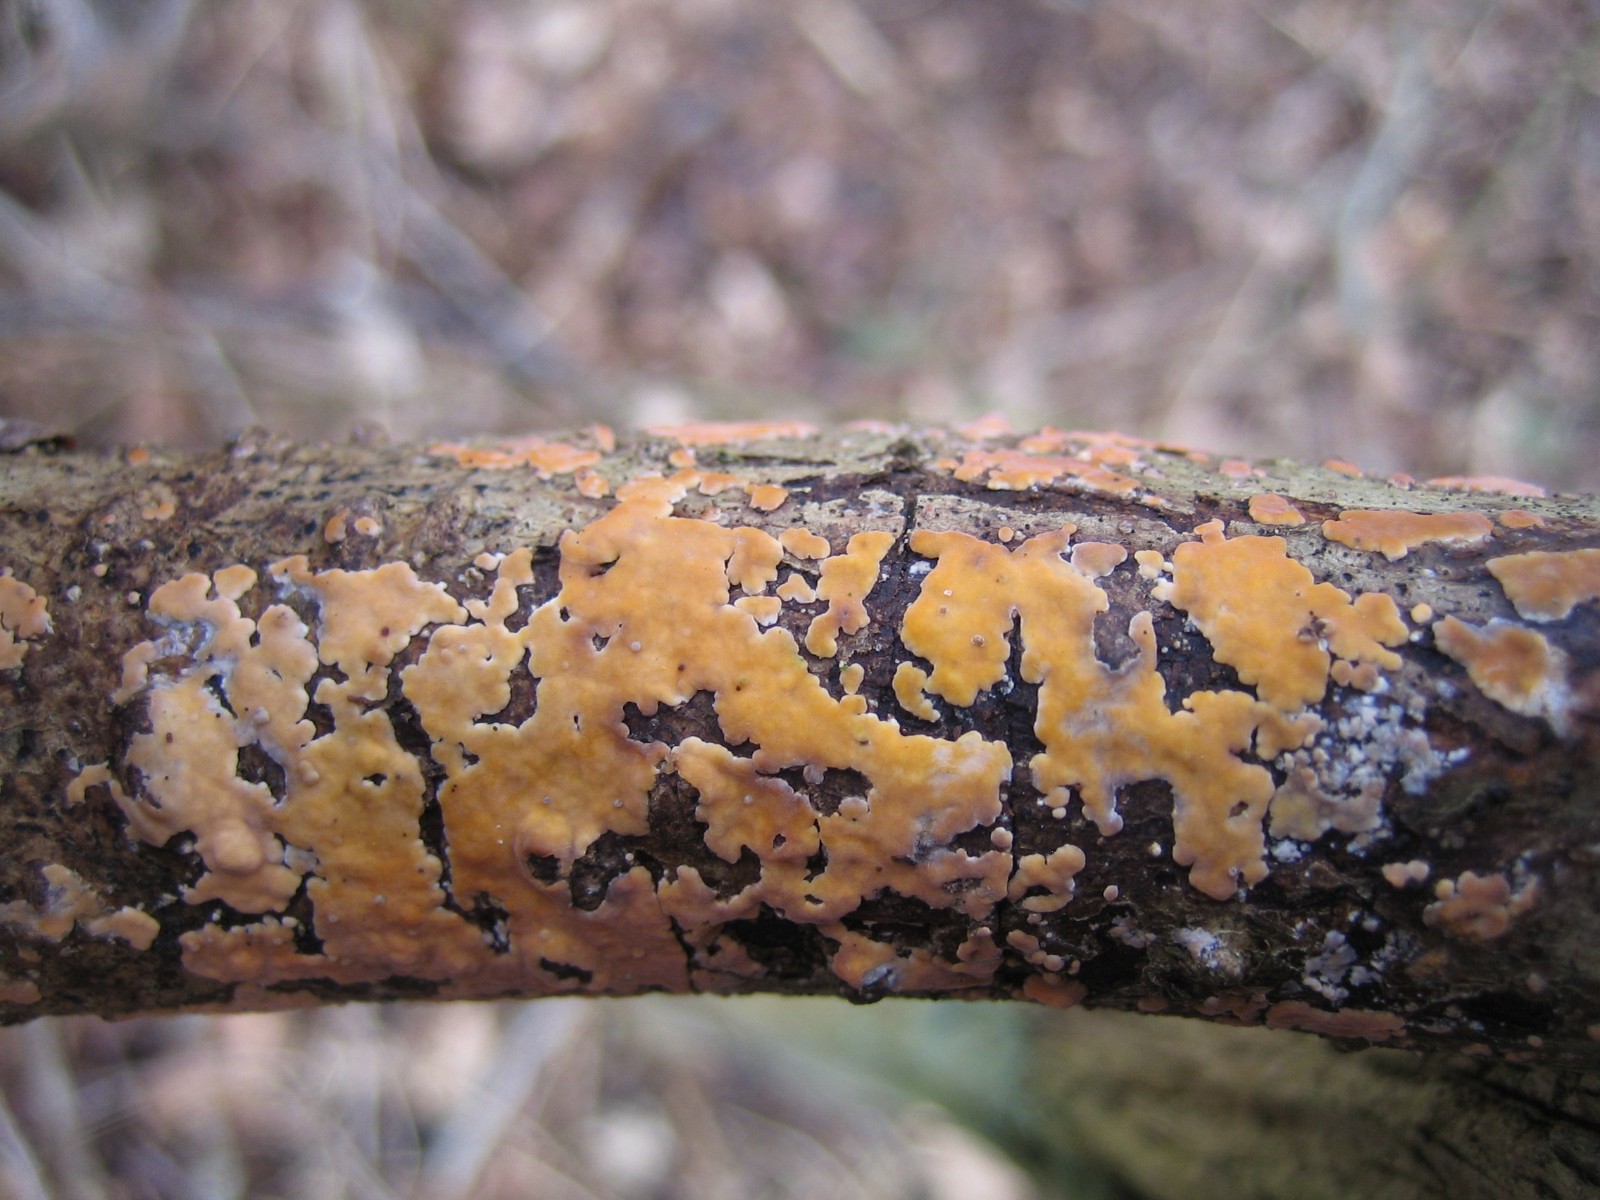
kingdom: Fungi
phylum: Basidiomycota
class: Agaricomycetes
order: Russulales
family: Peniophoraceae
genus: Peniophora
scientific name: Peniophora incarnata
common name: laksefarvet voksskind
